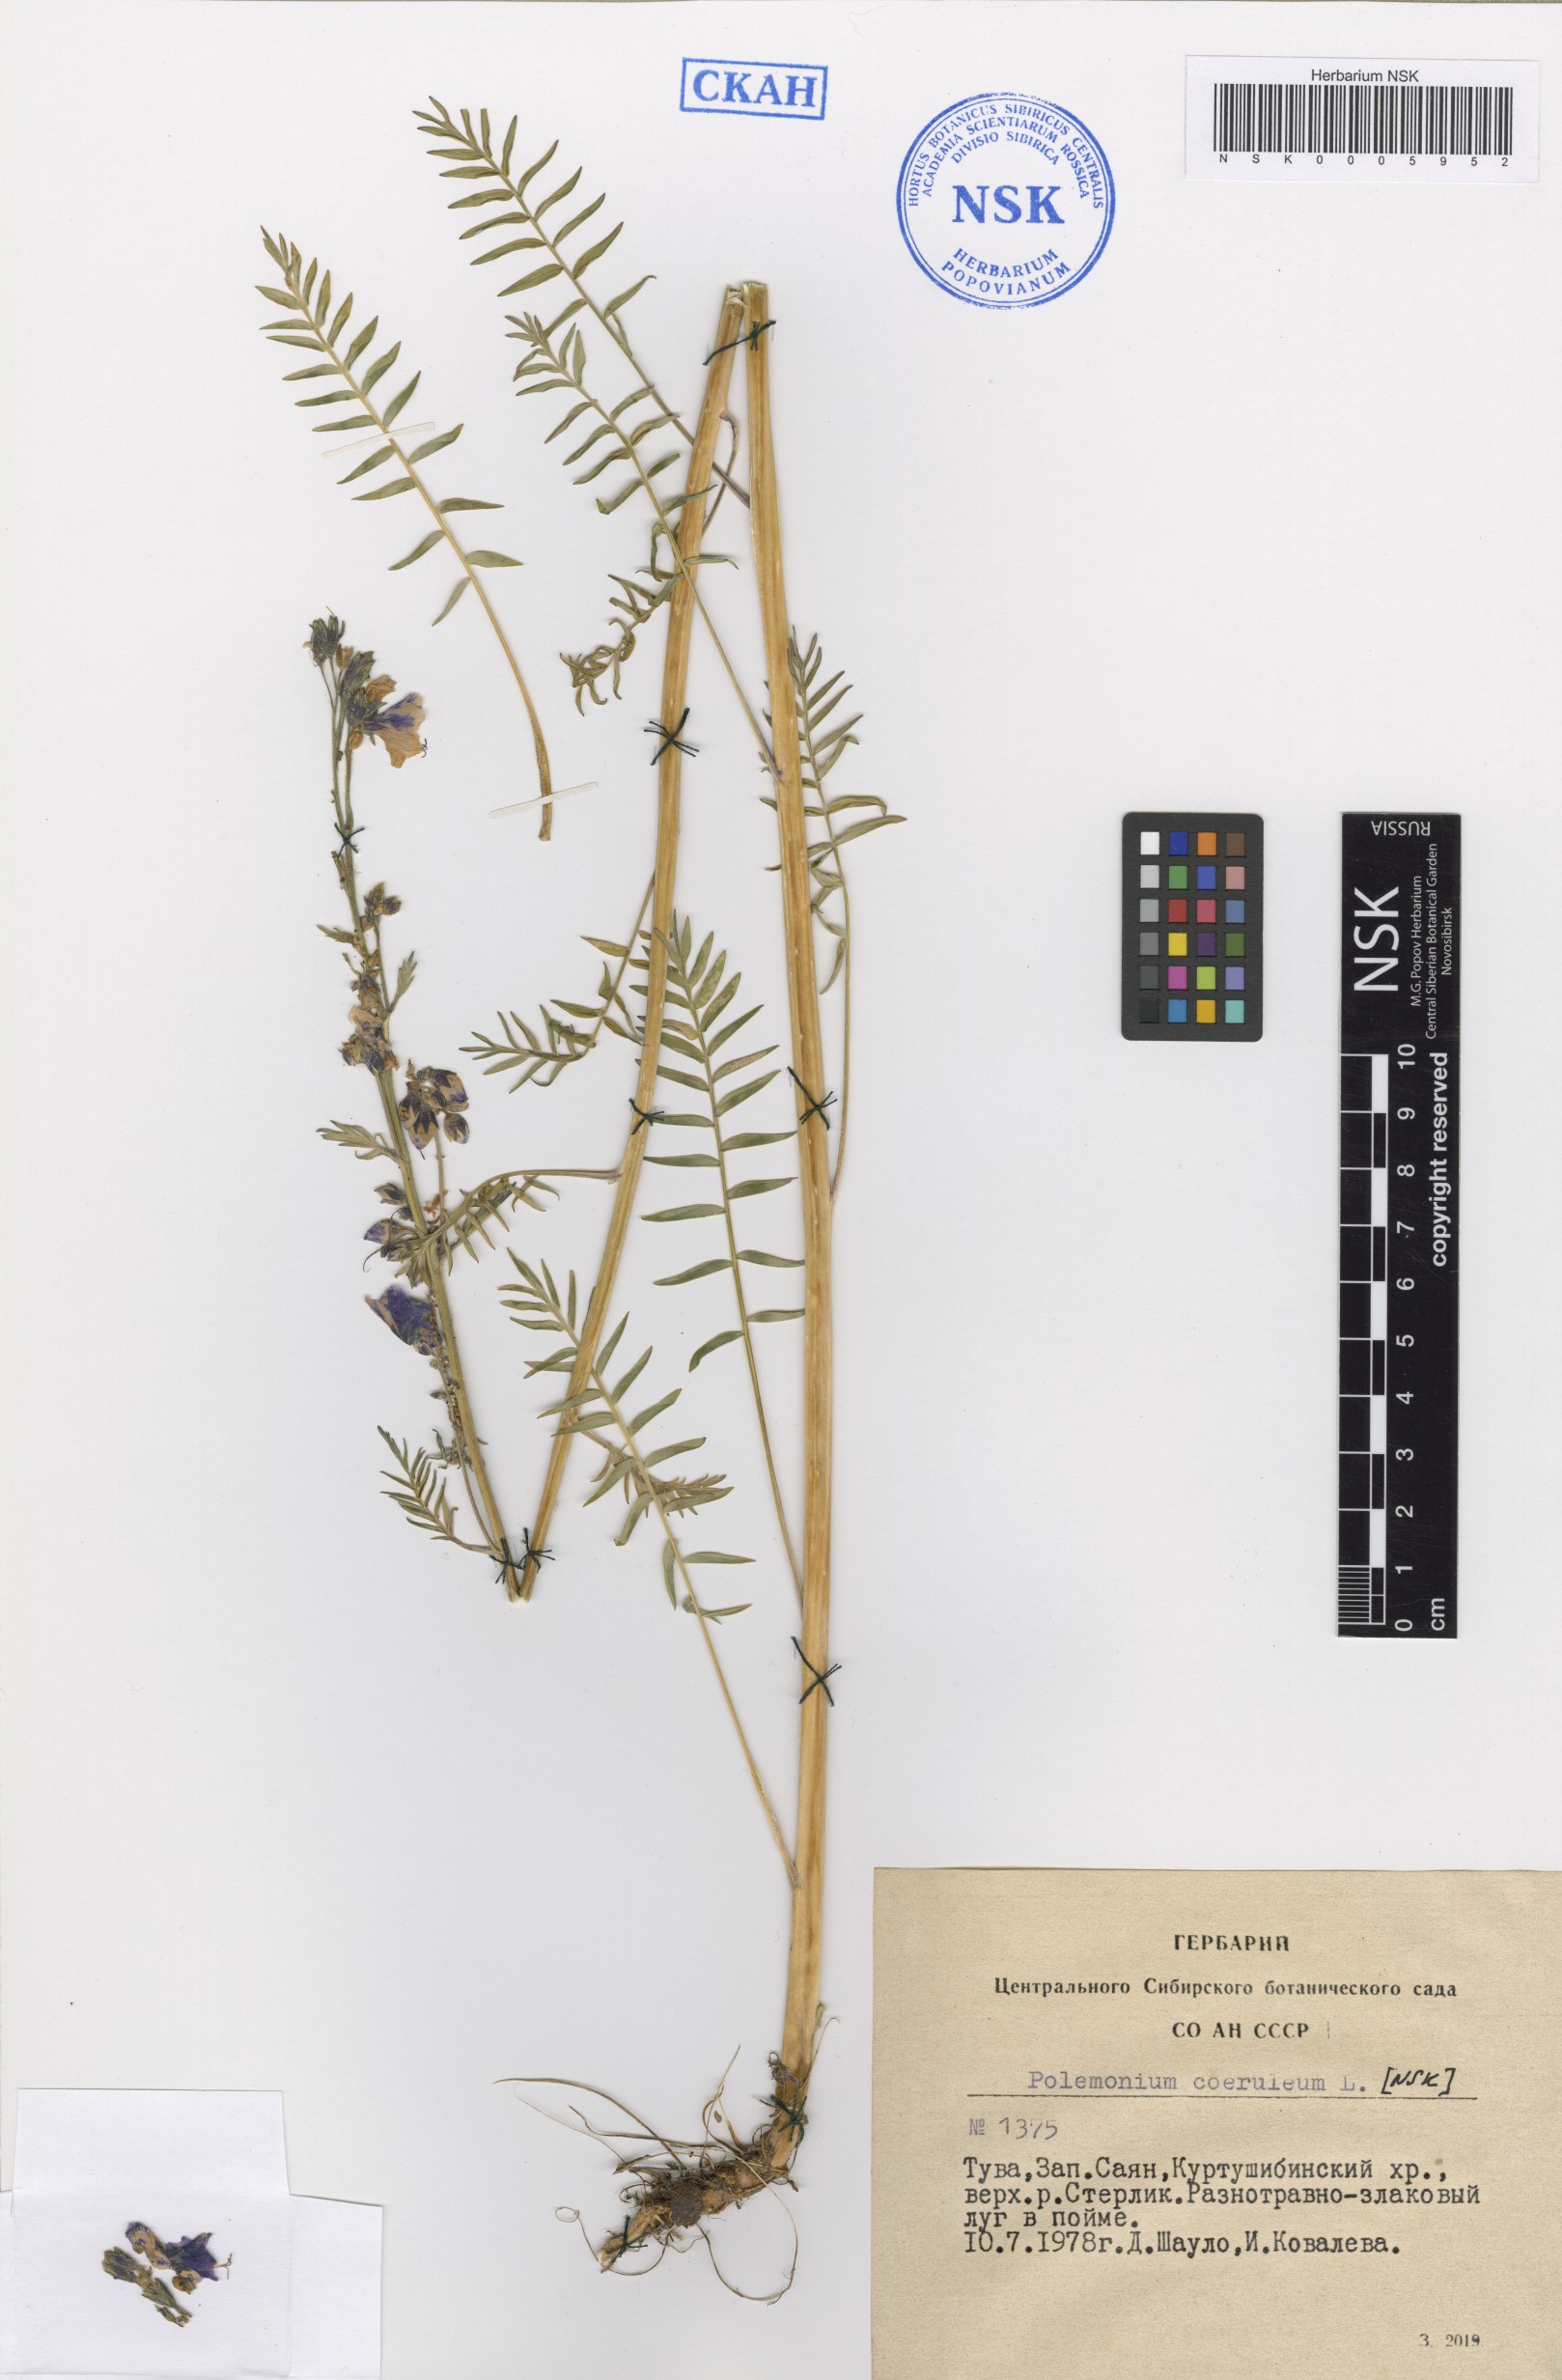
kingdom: Plantae
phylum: Tracheophyta
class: Magnoliopsida
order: Ericales
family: Polemoniaceae
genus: Polemonium
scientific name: Polemonium caeruleum
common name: Jacob's-ladder
